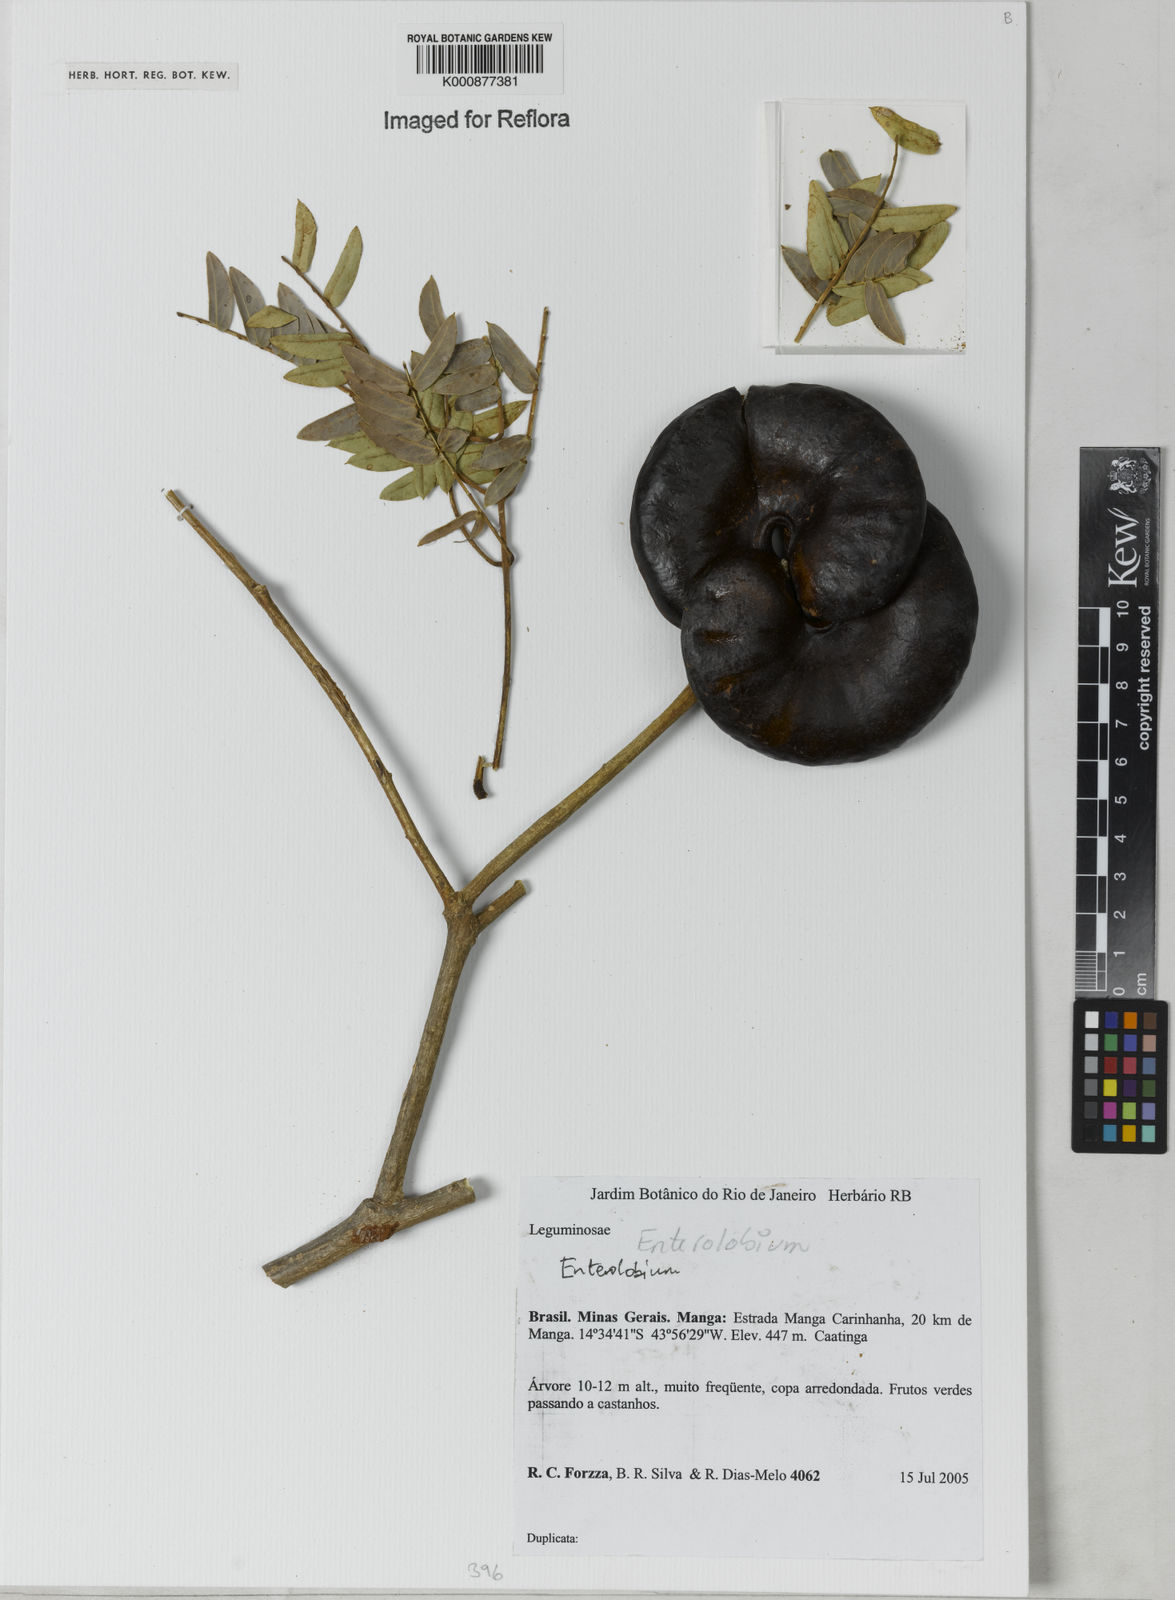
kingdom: Plantae
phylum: Tracheophyta
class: Magnoliopsida
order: Fabales
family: Fabaceae
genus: Enterolobium
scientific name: Enterolobium
